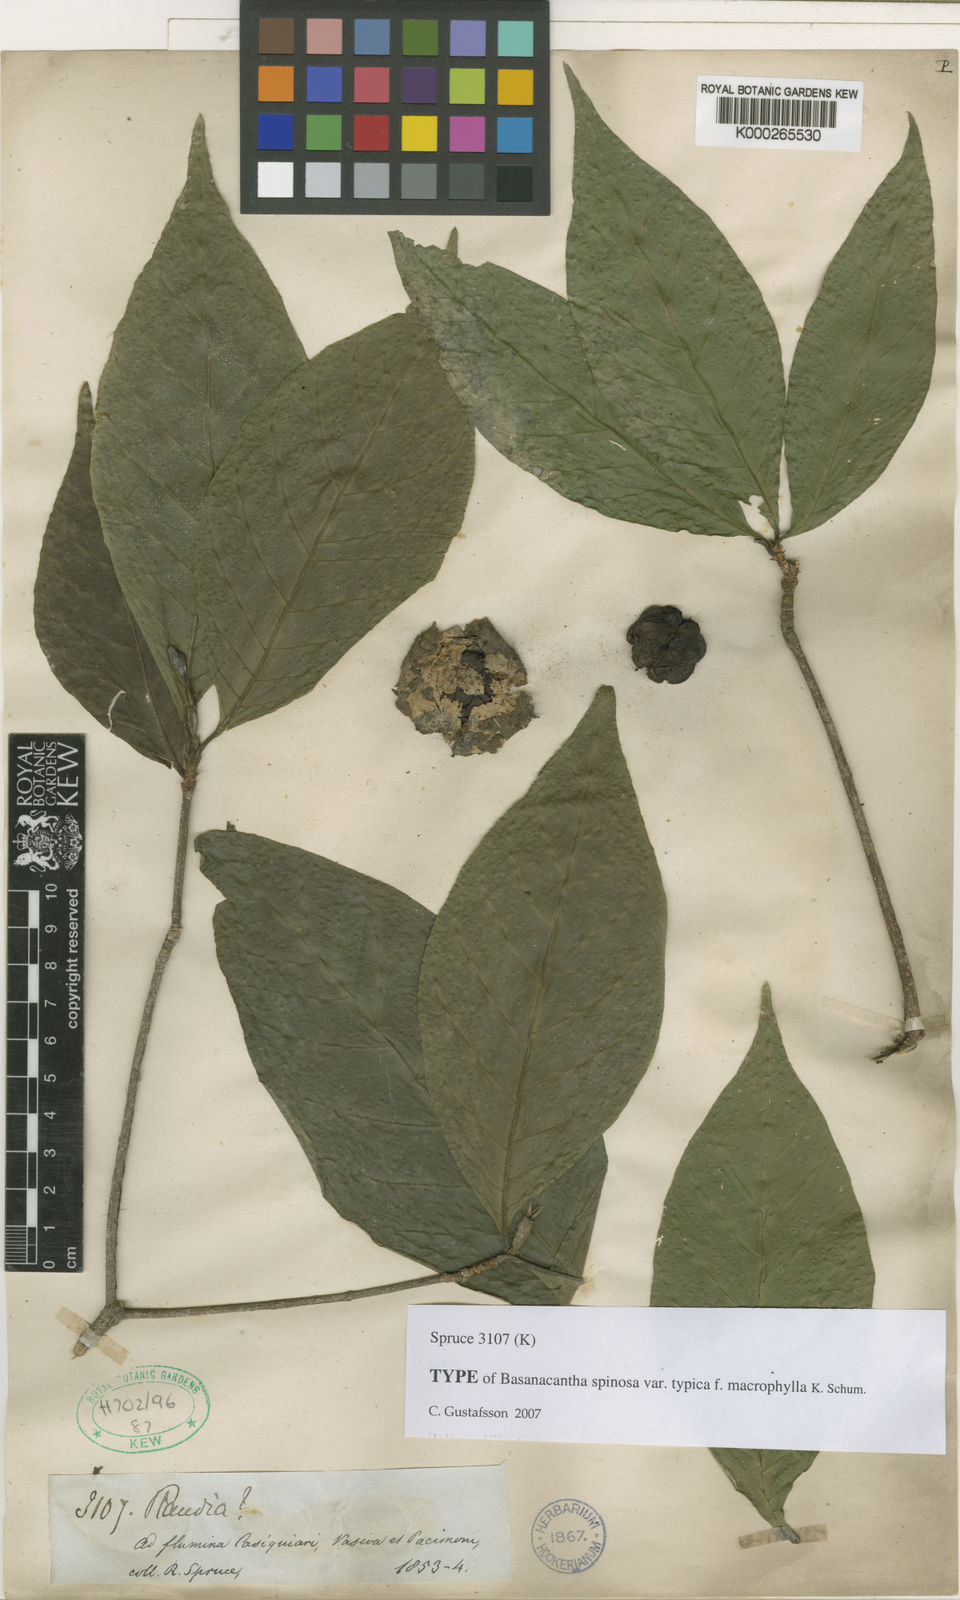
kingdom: Plantae
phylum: Tracheophyta
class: Magnoliopsida
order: Gentianales
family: Rubiaceae
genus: Randia
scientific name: Randia
